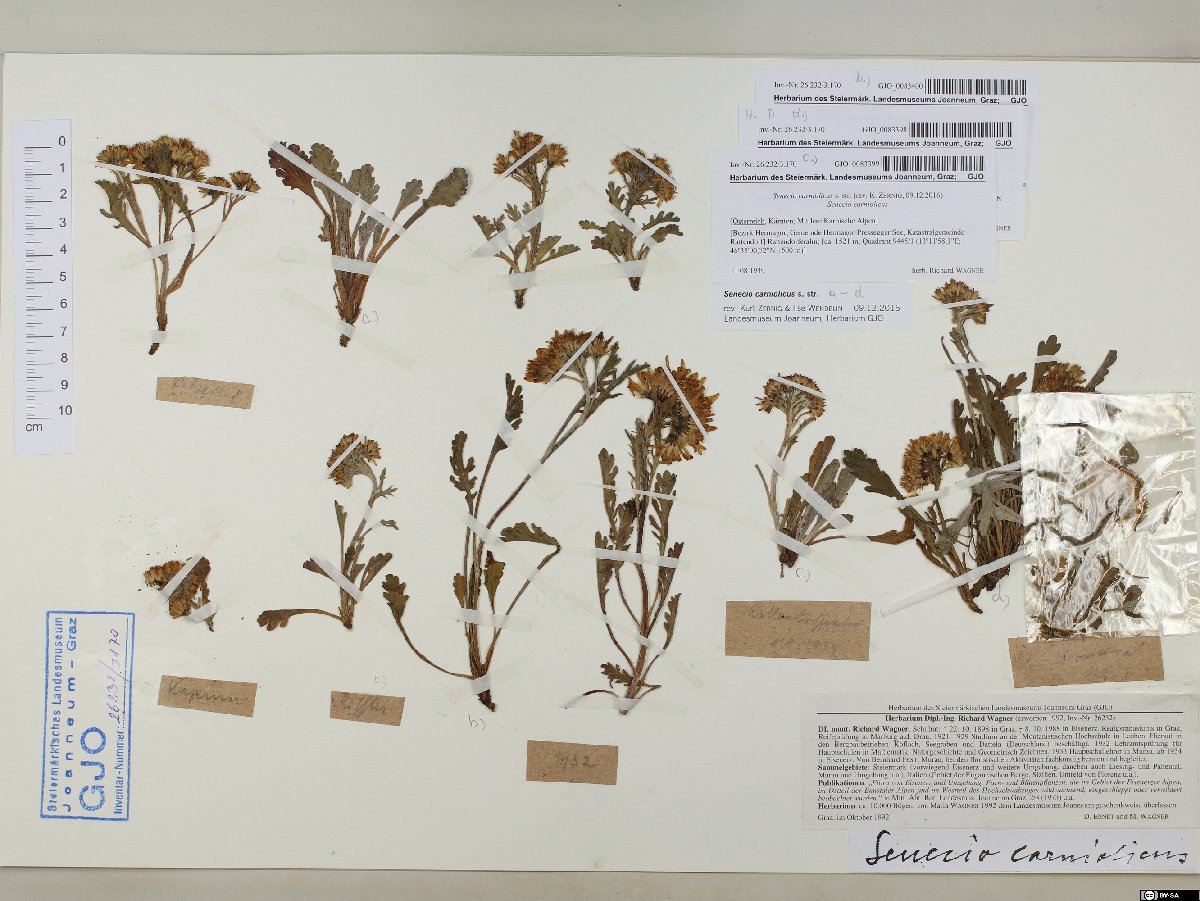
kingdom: Plantae
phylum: Tracheophyta
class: Magnoliopsida
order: Asterales
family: Asteraceae
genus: Jacobaea
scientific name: Jacobaea carniolica
